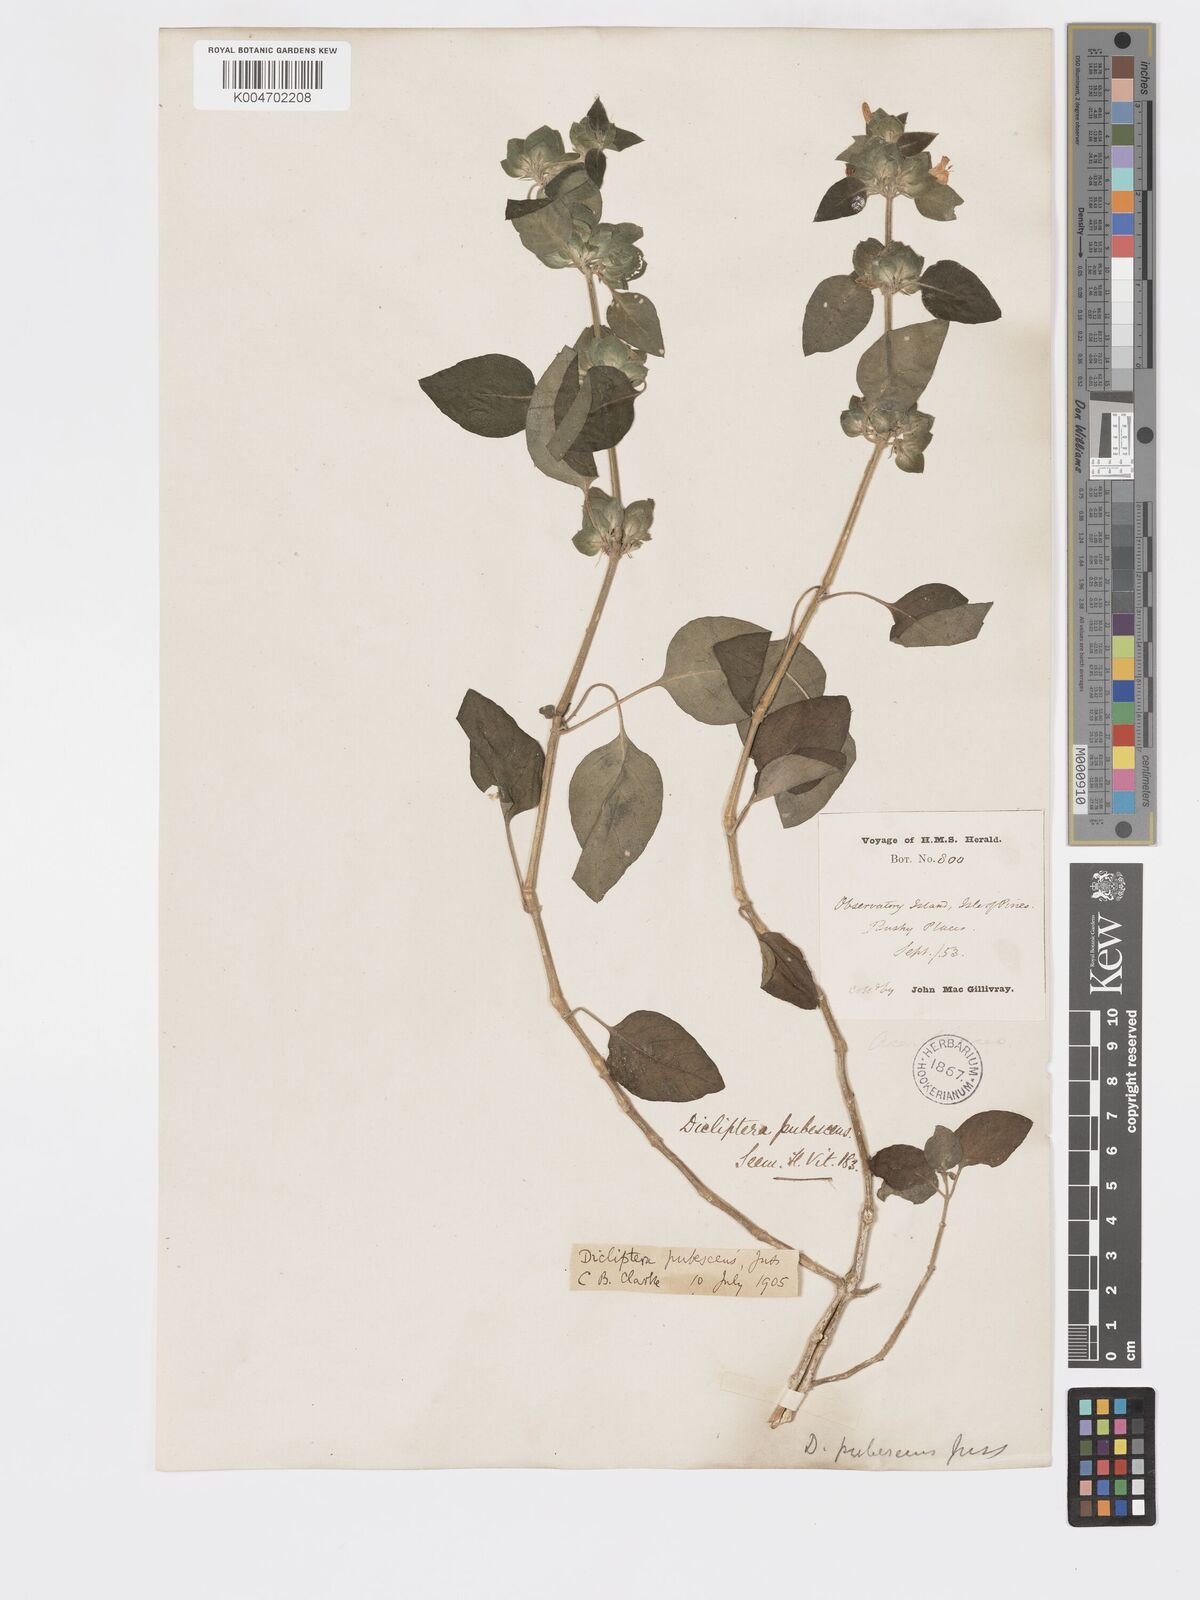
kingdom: Plantae
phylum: Tracheophyta
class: Magnoliopsida
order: Lamiales
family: Acanthaceae
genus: Rungia
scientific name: Rungia parviflora
